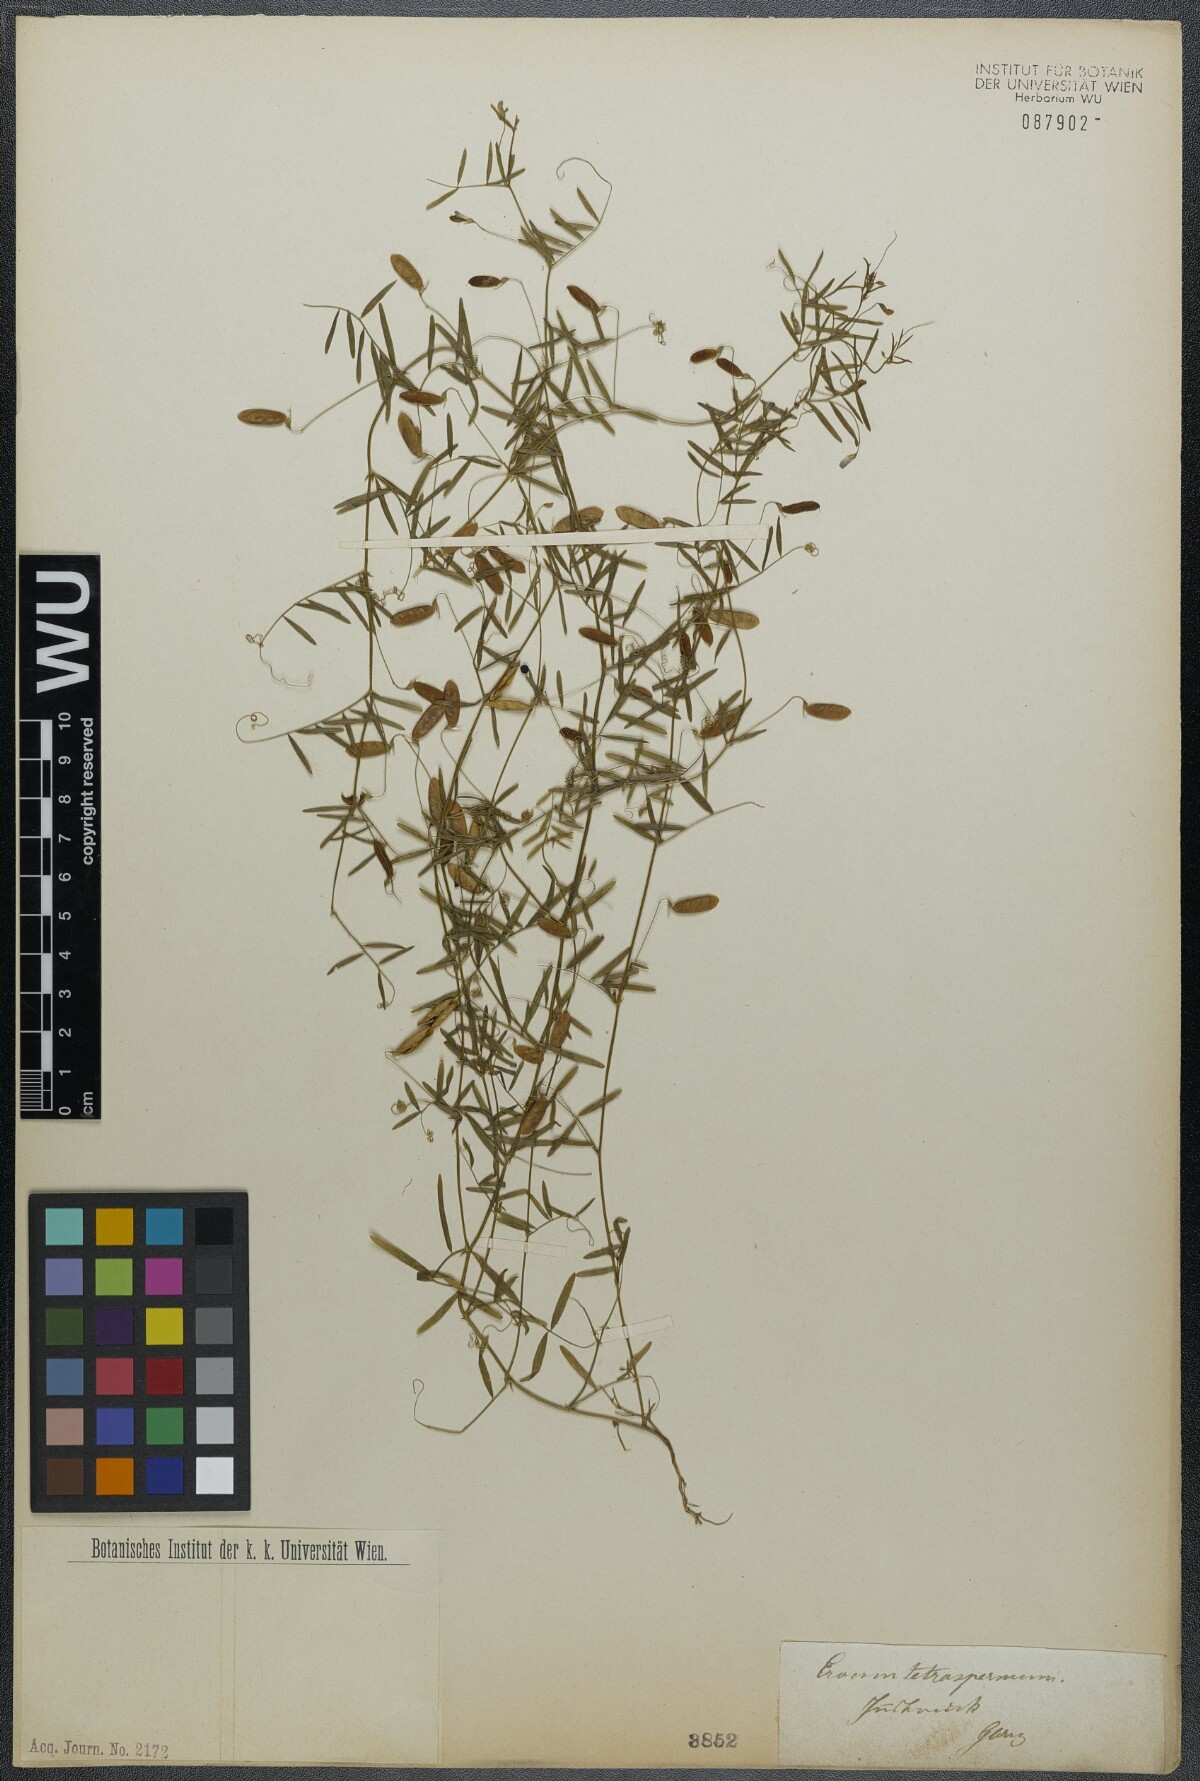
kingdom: Plantae
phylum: Tracheophyta
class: Magnoliopsida
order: Fabales
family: Fabaceae
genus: Vicia
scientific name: Vicia tetrasperma
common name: Smooth tare
